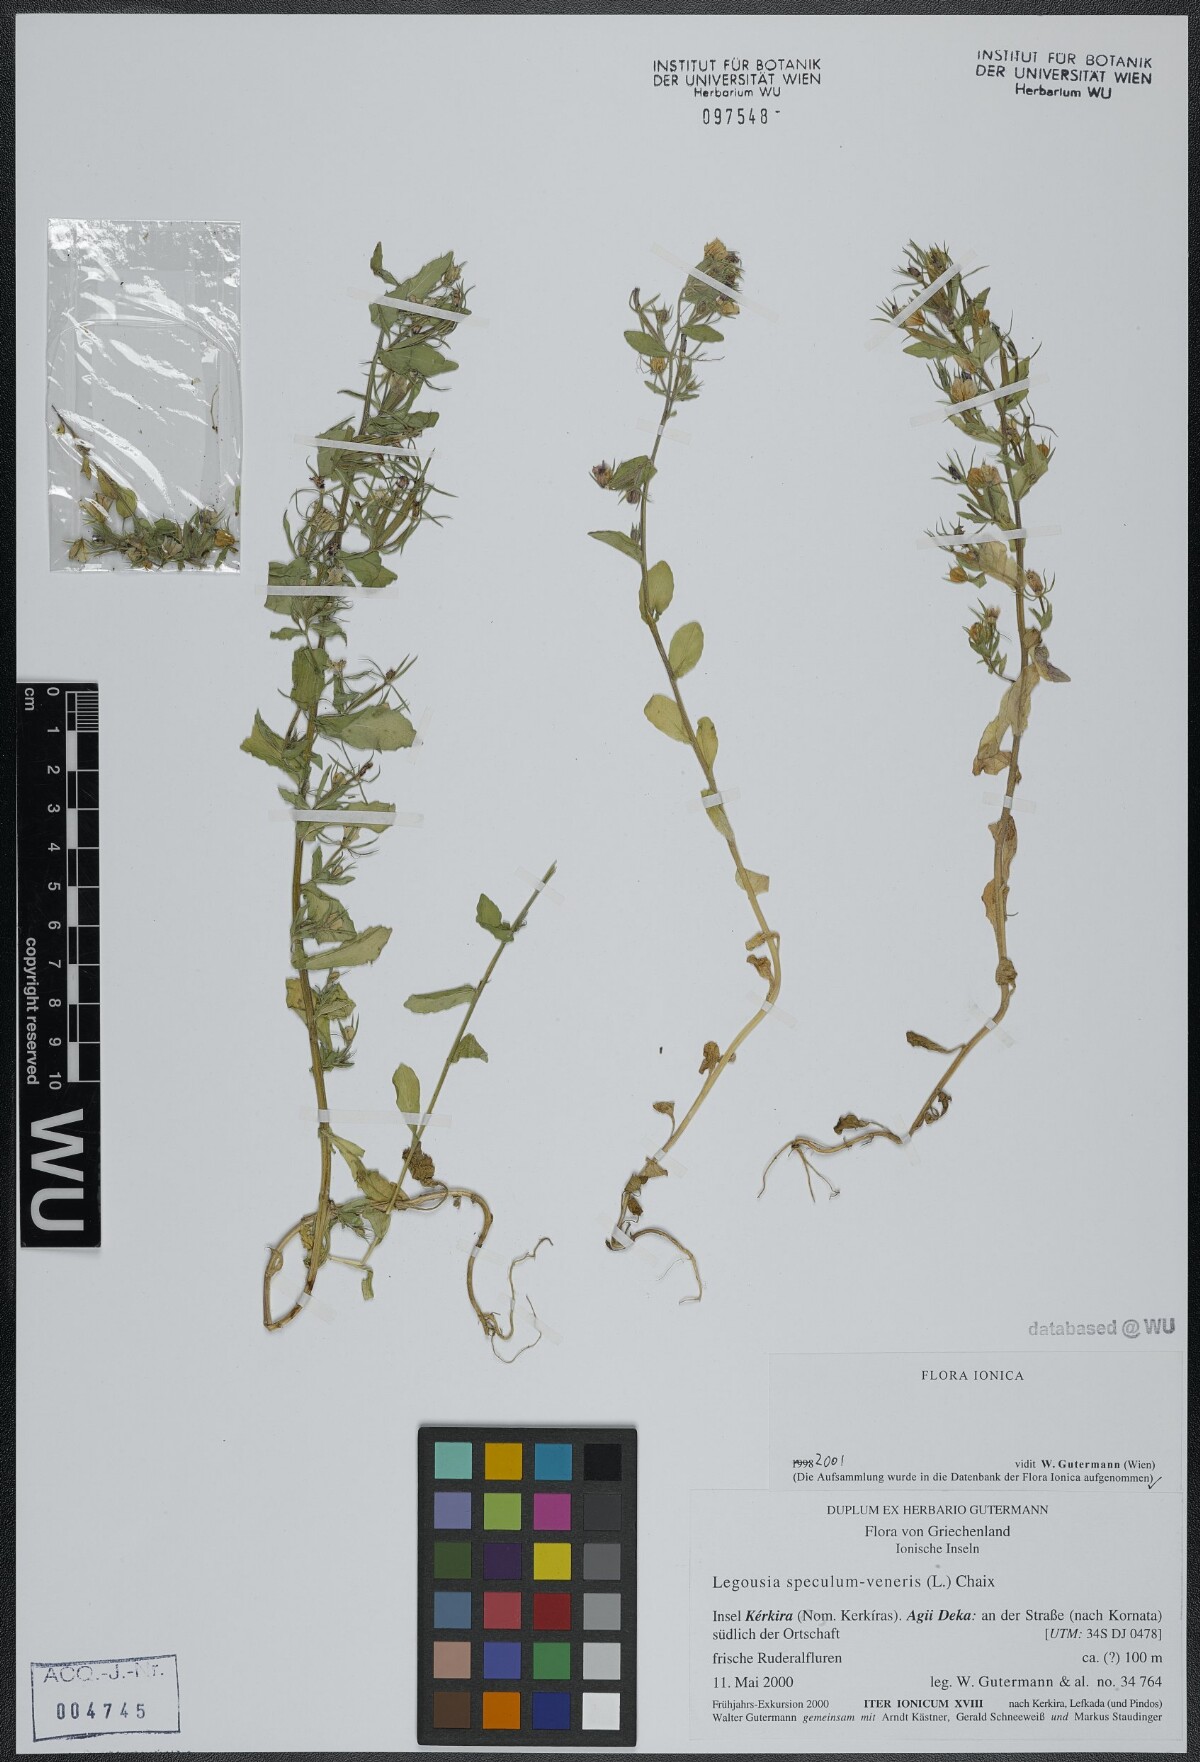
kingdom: Plantae
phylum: Tracheophyta
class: Magnoliopsida
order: Asterales
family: Campanulaceae
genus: Legousia
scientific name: Legousia speculum-veneris
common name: Large venus's-looking-glass
